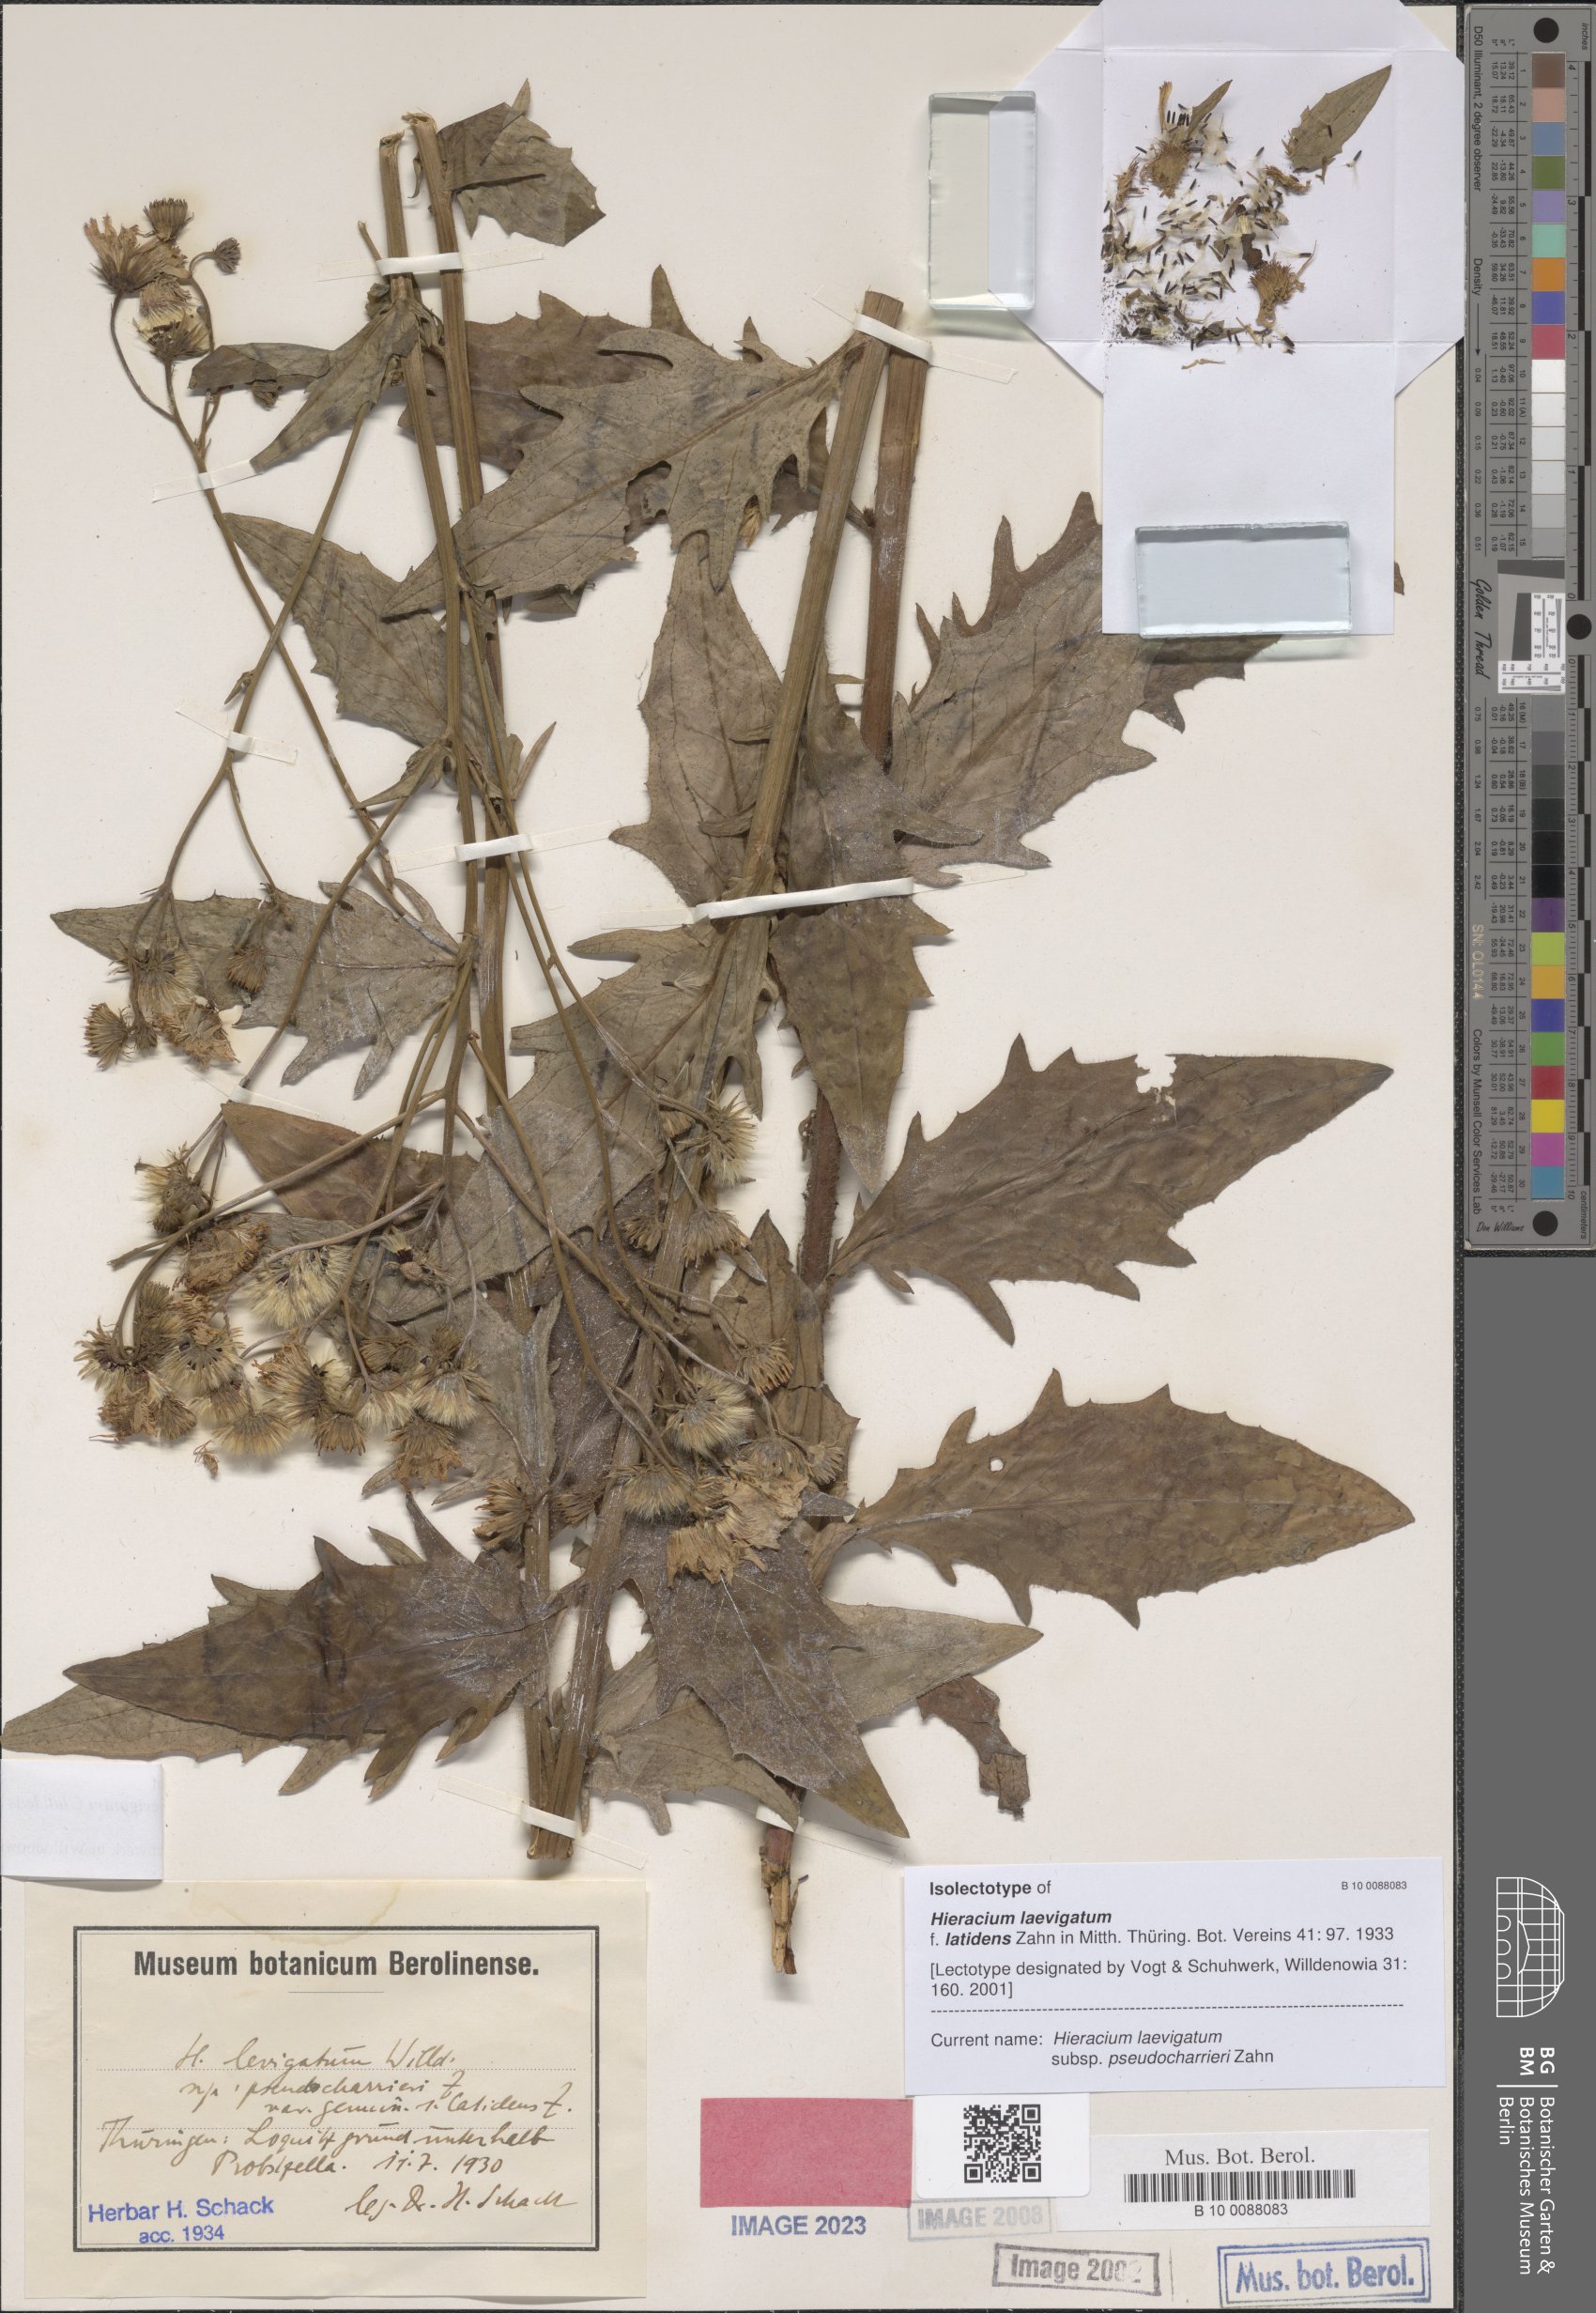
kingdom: Plantae
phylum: Tracheophyta
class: Magnoliopsida
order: Asterales
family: Asteraceae
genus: Hieracium
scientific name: Hieracium laevigatum
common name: Smooth hawkweed
